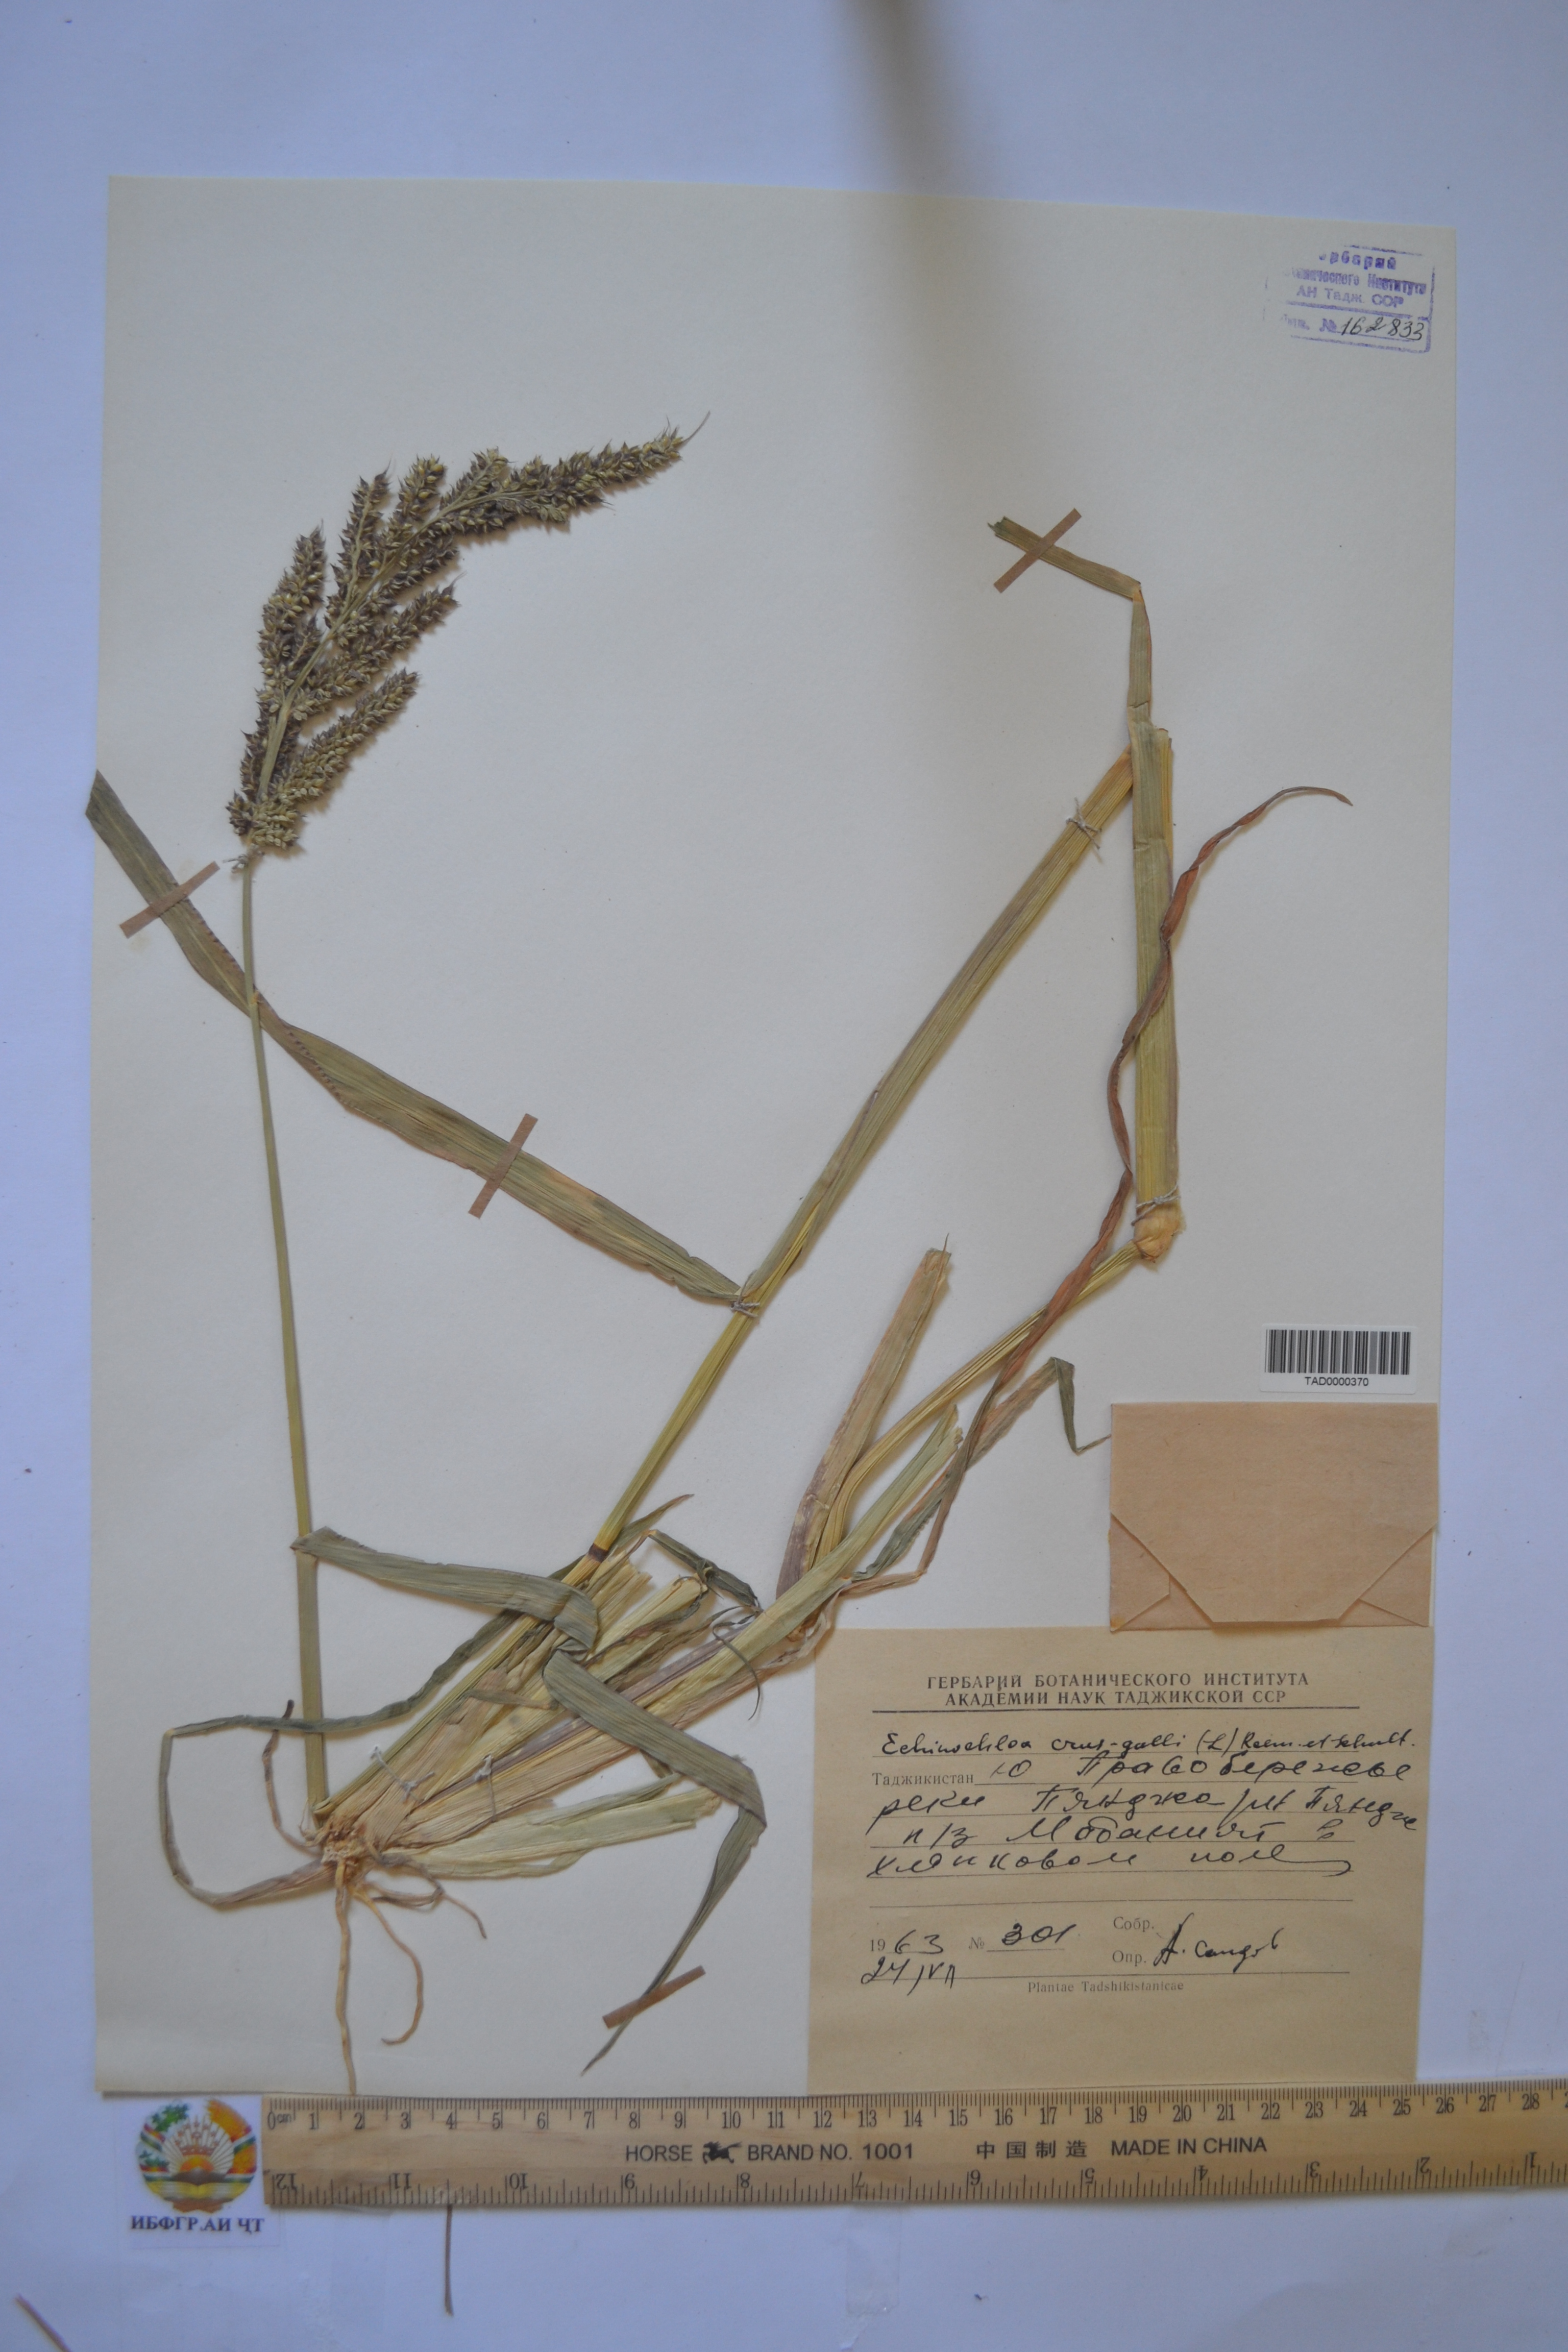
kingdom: Plantae
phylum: Tracheophyta
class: Liliopsida
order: Poales
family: Poaceae
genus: Echinochloa
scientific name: Echinochloa crus-galli
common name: Cockspur
